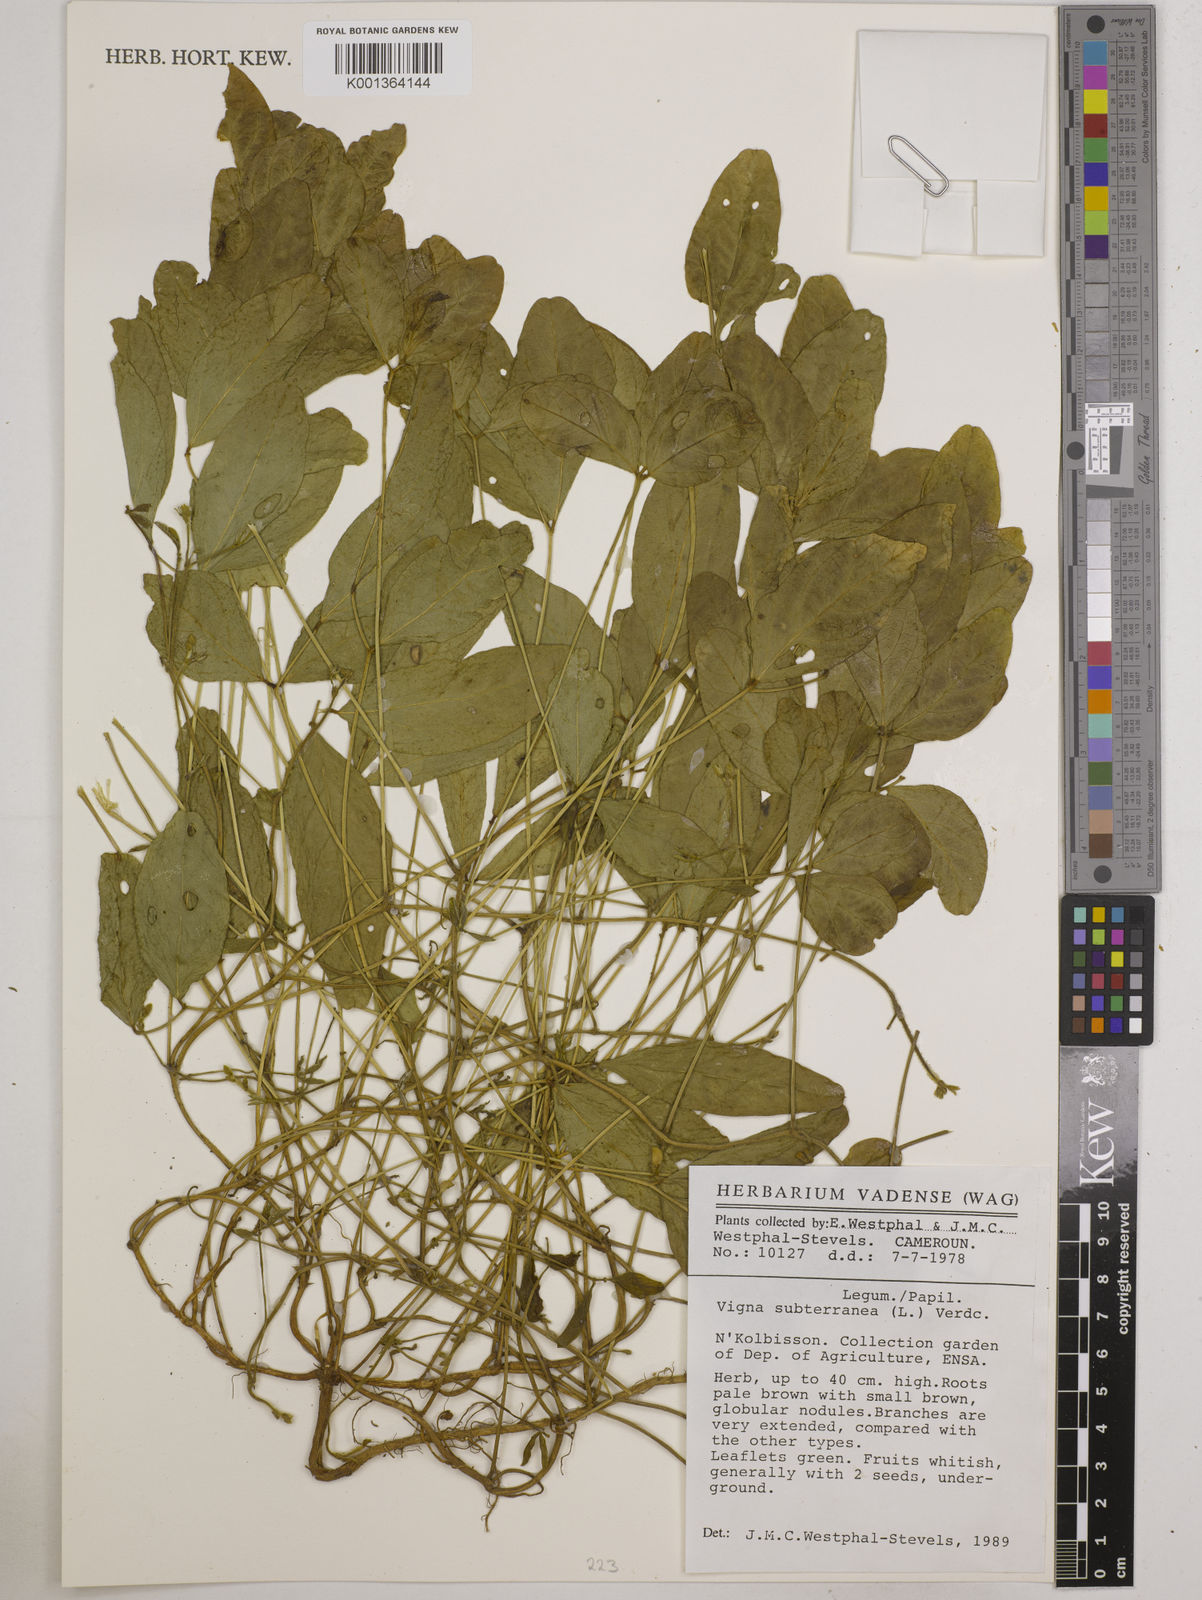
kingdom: Plantae
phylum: Tracheophyta
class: Magnoliopsida
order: Fabales
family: Fabaceae
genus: Vigna
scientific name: Vigna subterranea
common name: Bambara groundnut
